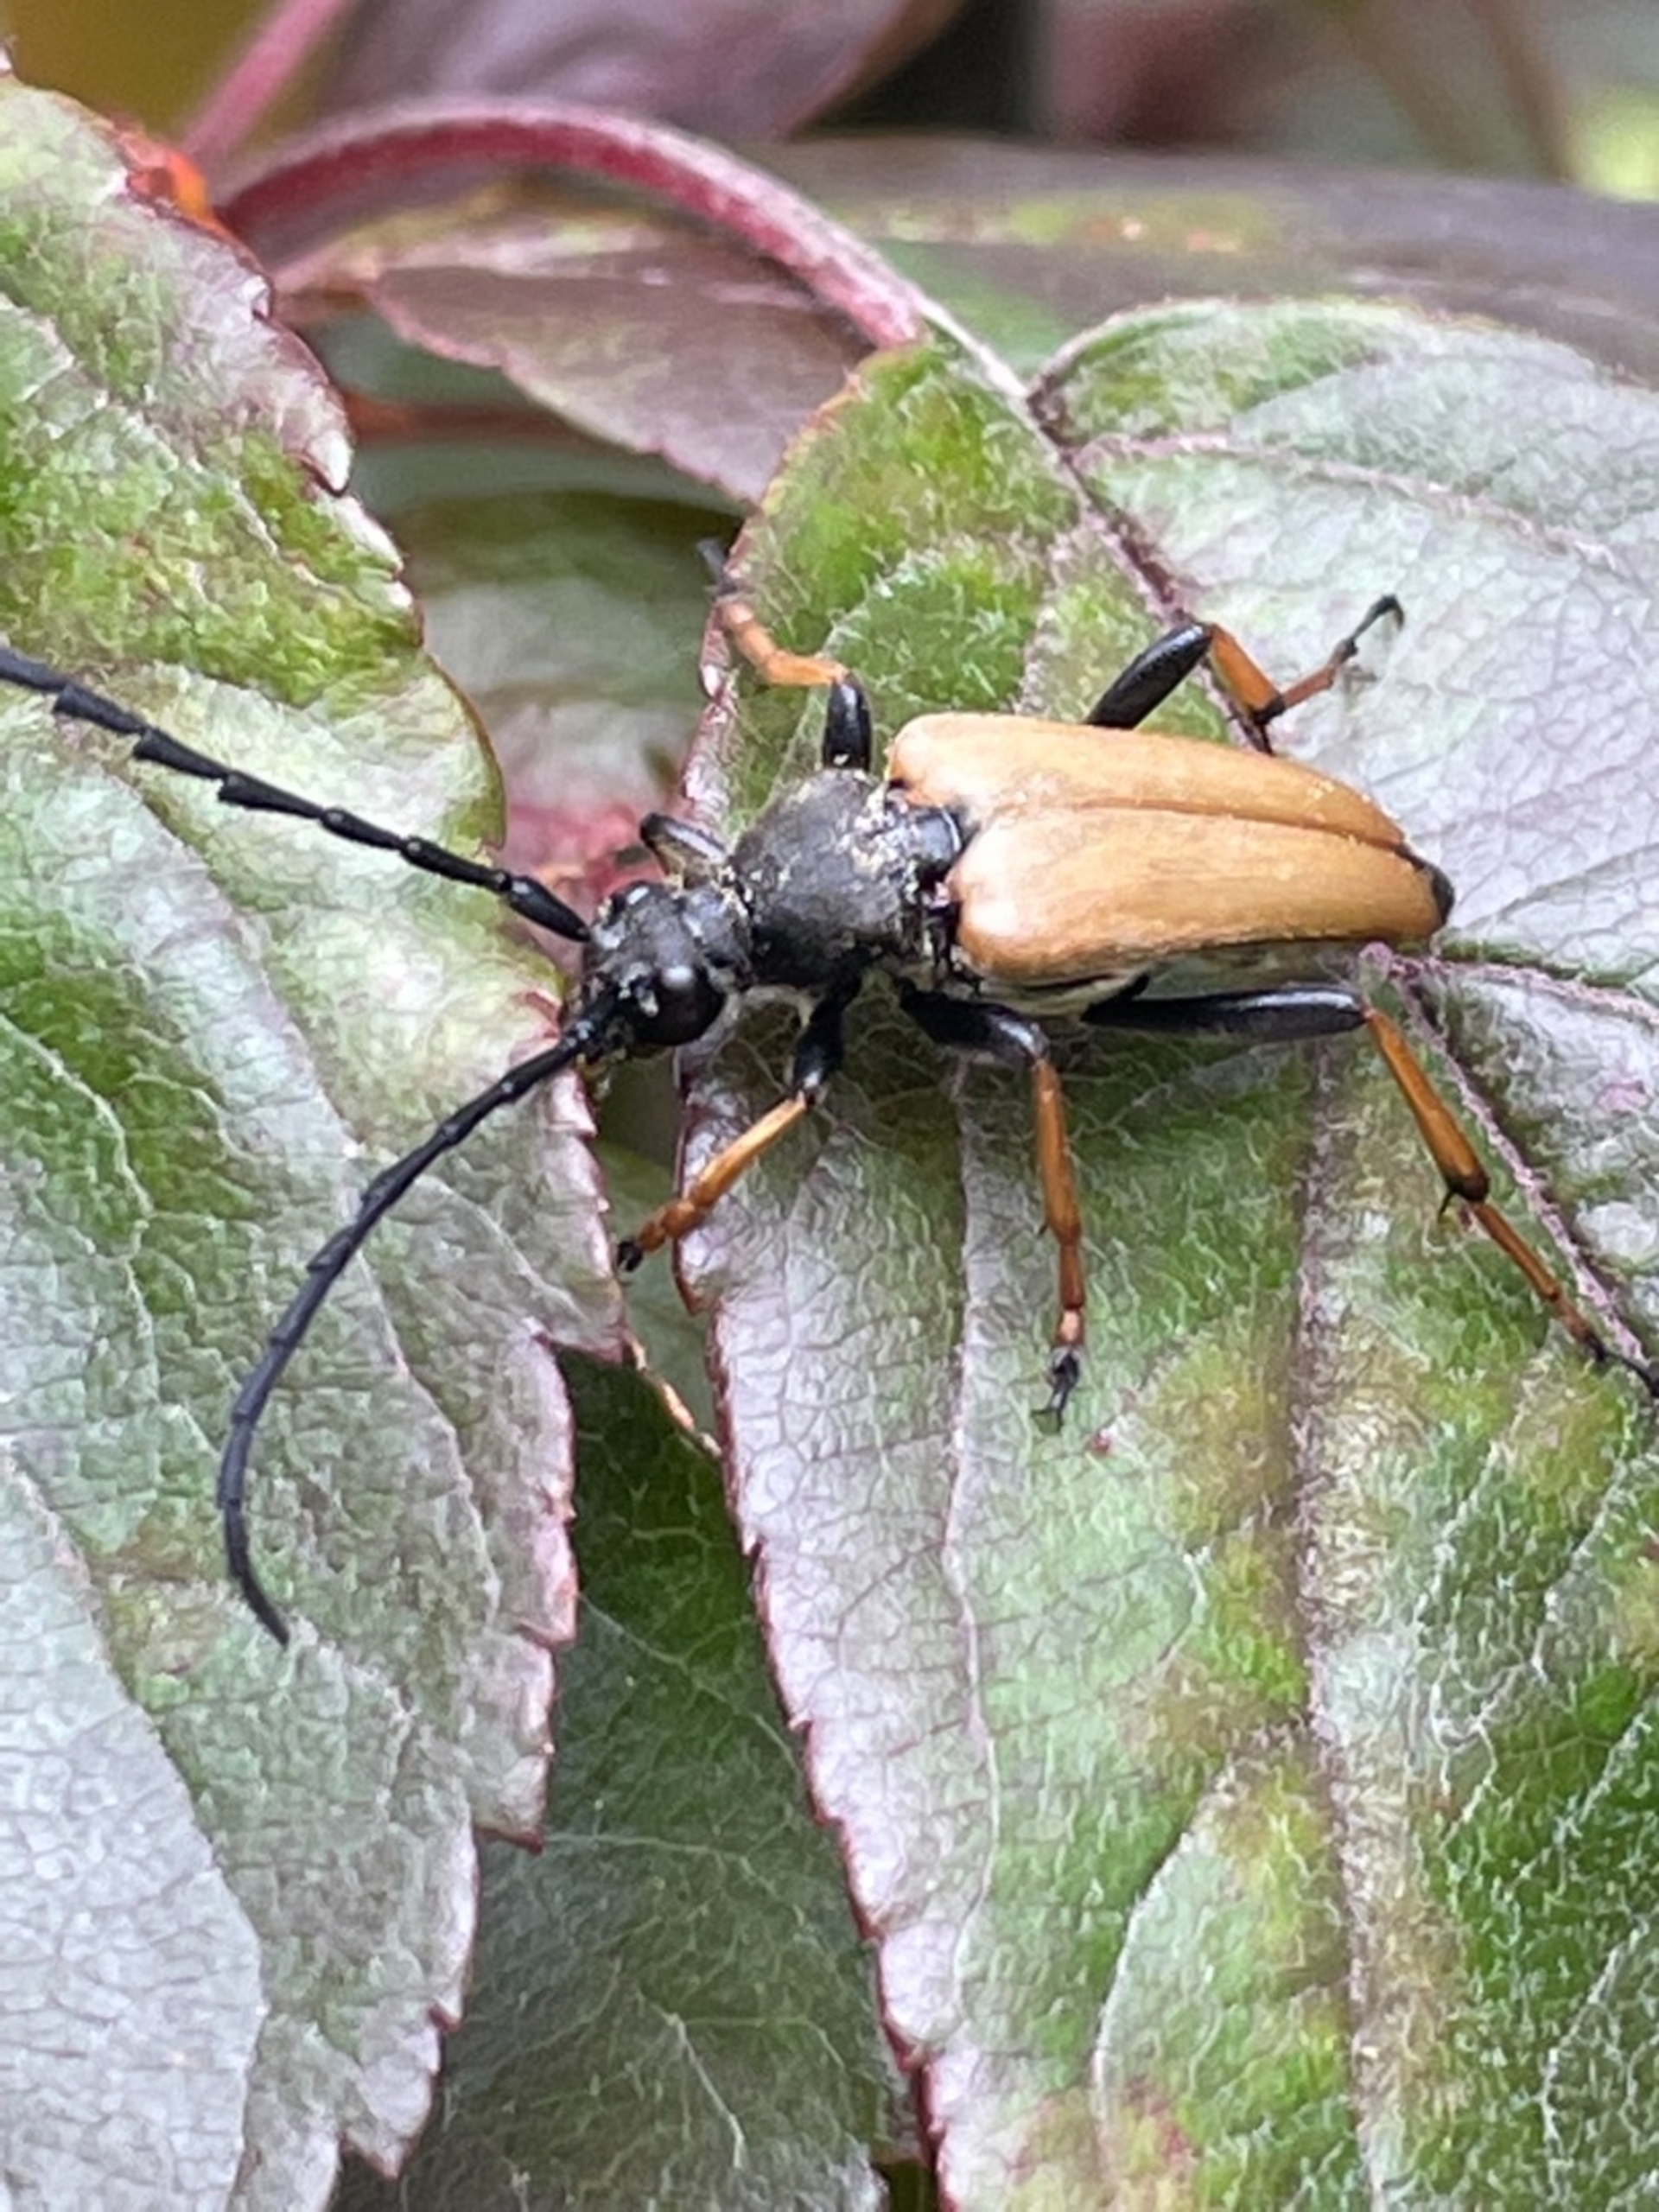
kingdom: Animalia
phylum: Arthropoda
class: Insecta
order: Coleoptera
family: Cerambycidae
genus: Stictoleptura
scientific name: Stictoleptura rubra
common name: Rød blomsterbuk
